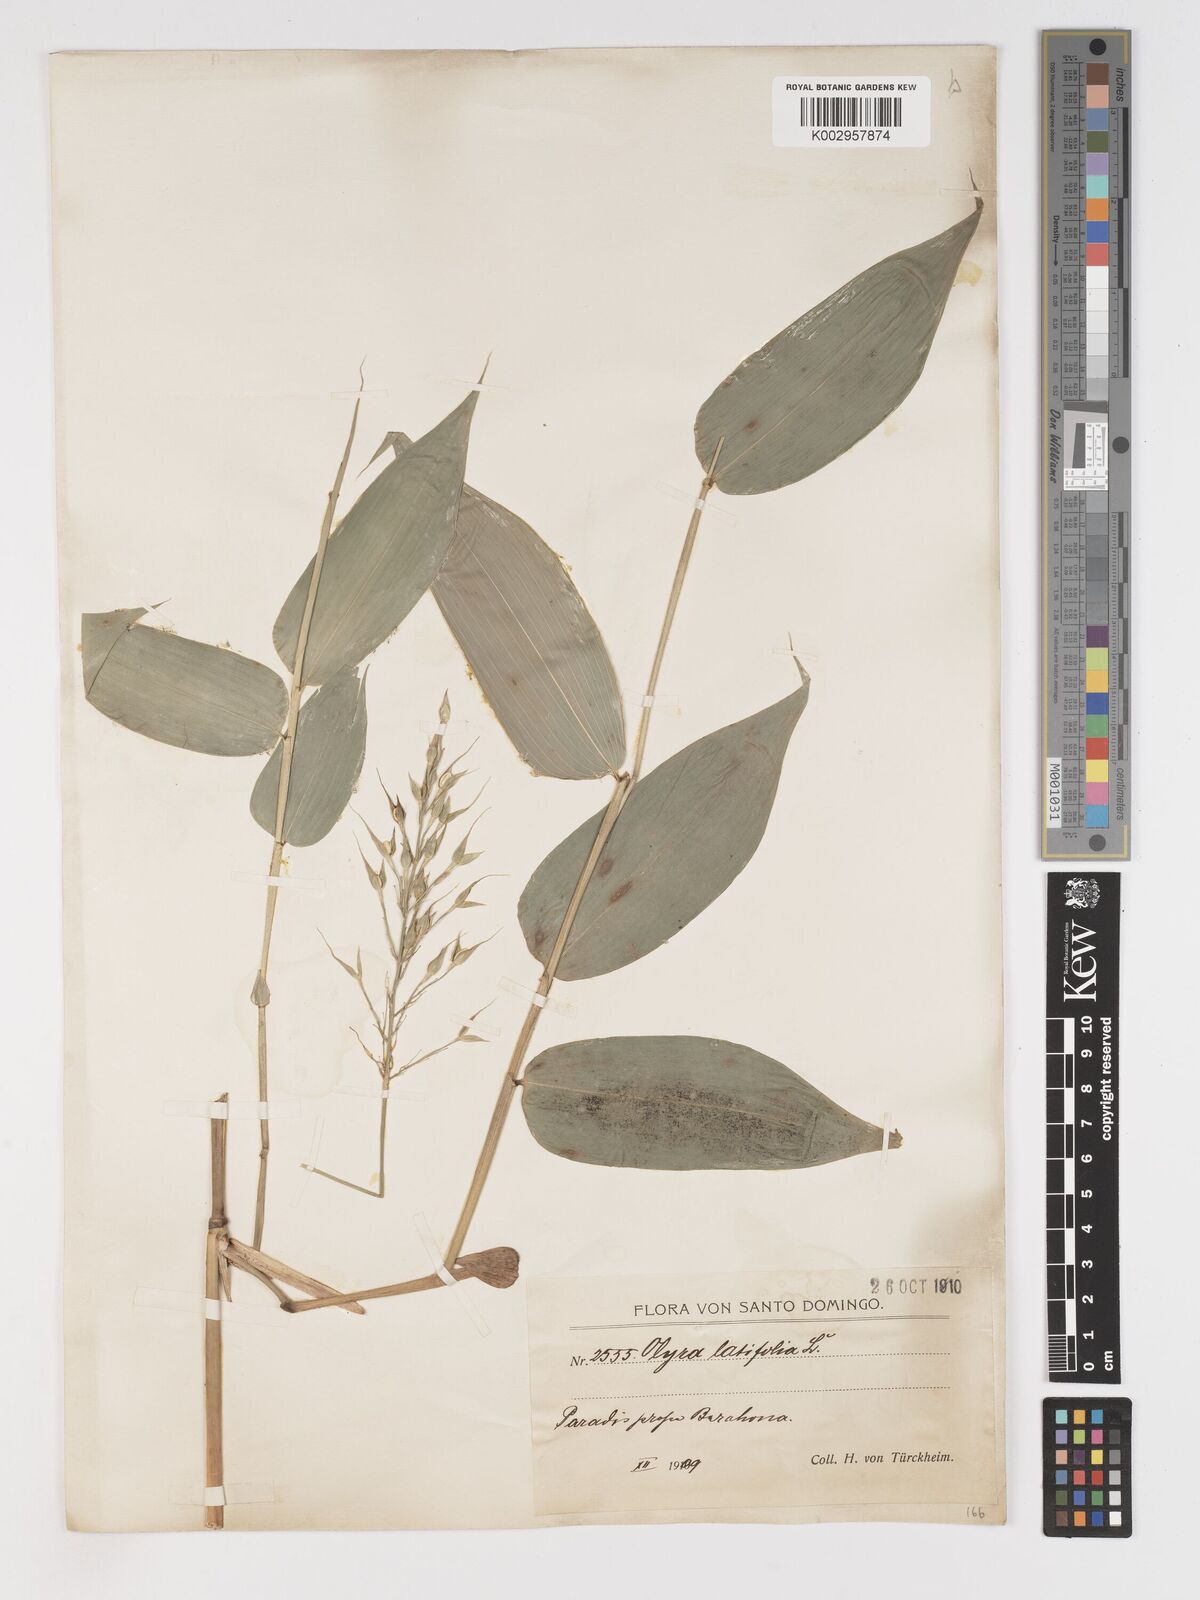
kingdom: Plantae
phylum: Tracheophyta
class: Liliopsida
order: Poales
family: Poaceae
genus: Olyra
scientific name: Olyra latifolia
